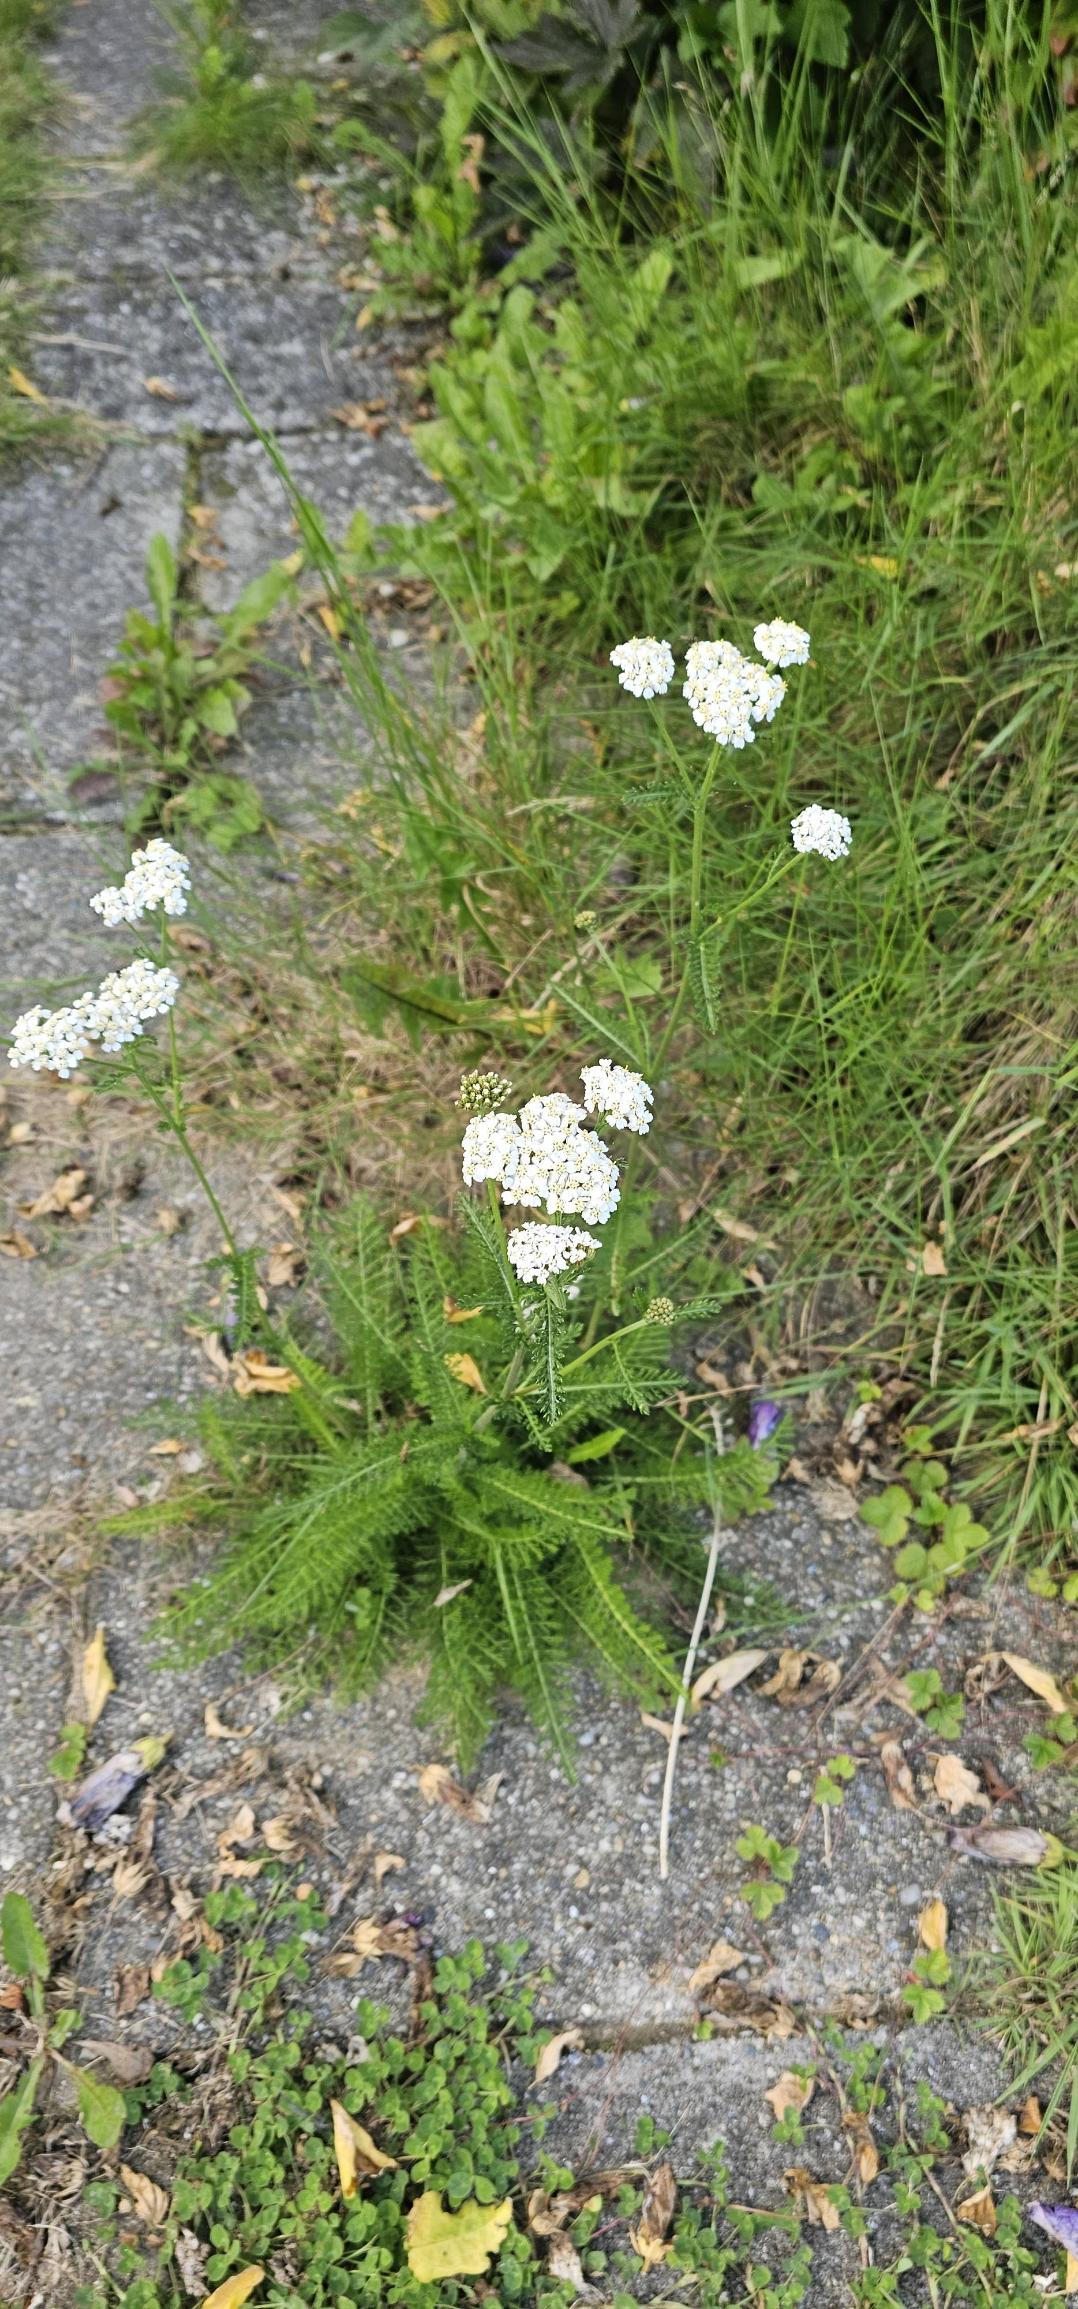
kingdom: Plantae
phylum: Tracheophyta
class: Magnoliopsida
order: Asterales
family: Asteraceae
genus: Achillea
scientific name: Achillea millefolium
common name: Almindelig røllike
